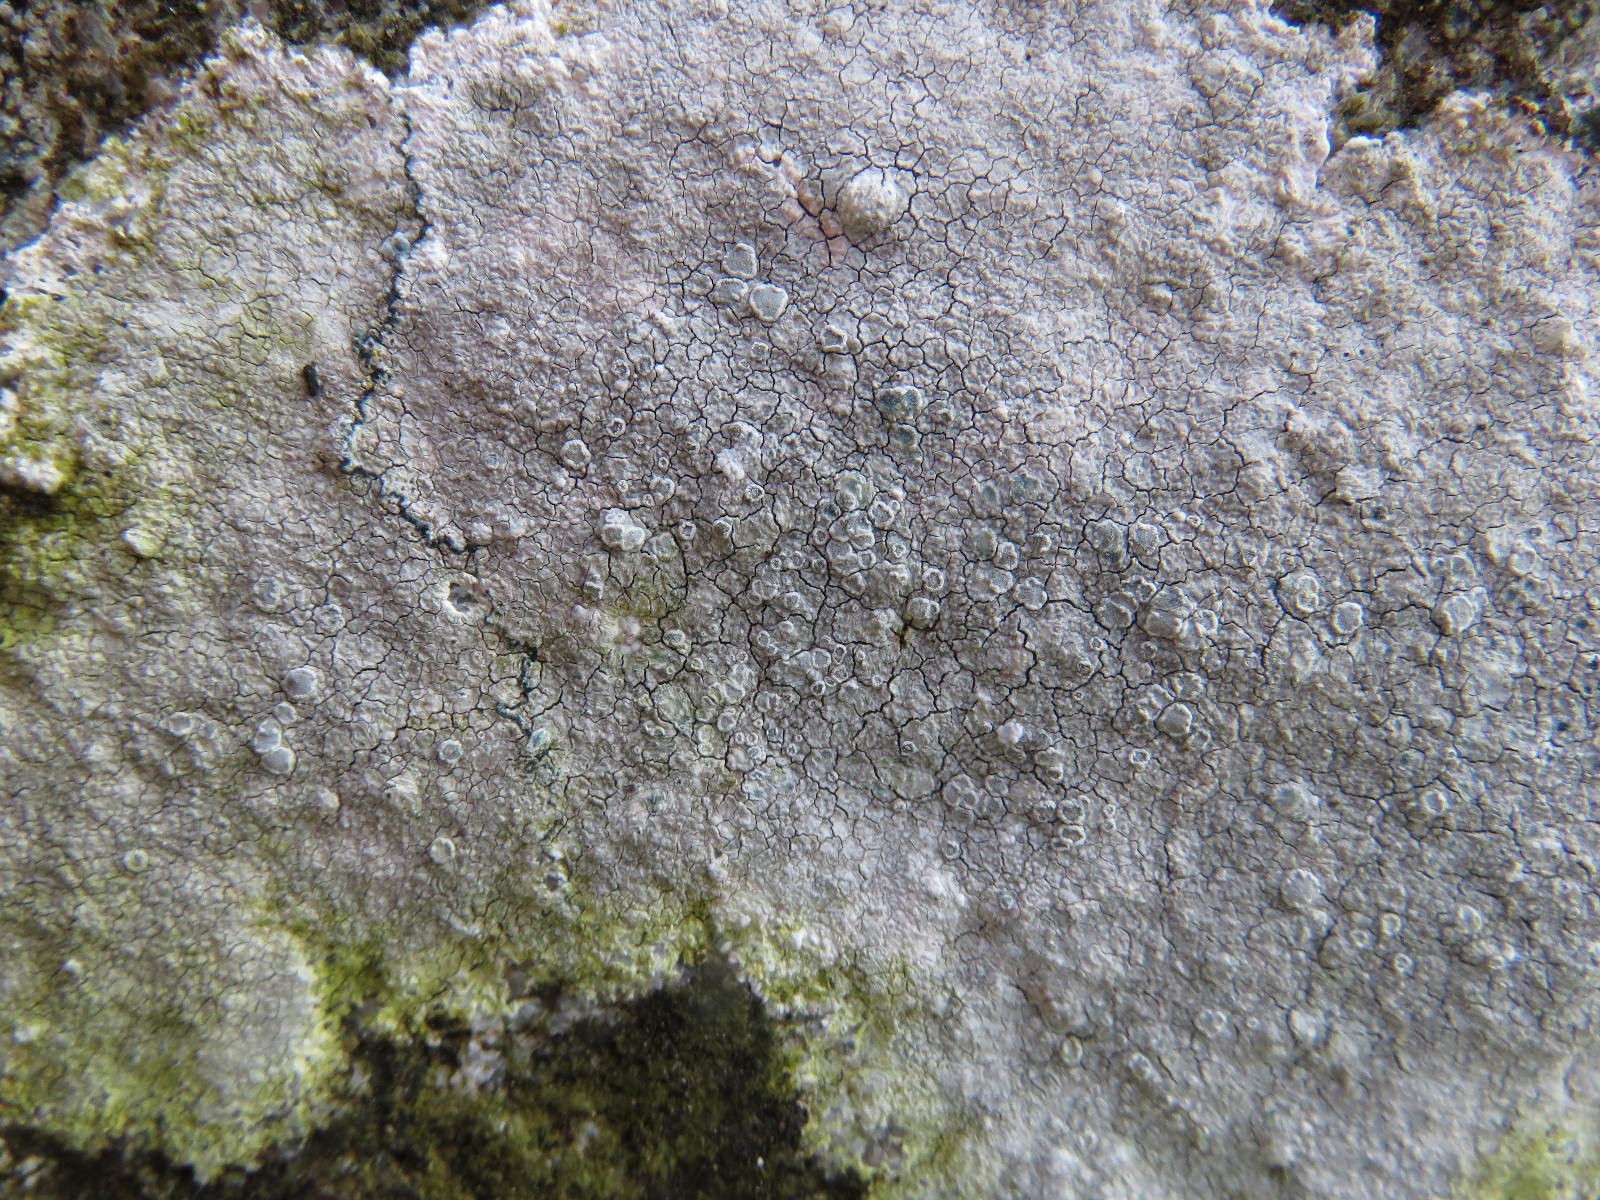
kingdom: Fungi
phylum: Ascomycota
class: Lecanoromycetes
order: Lecanorales
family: Lecanoraceae
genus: Glaucomaria
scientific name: Glaucomaria rupicola
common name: stengærde-kantskivelav
